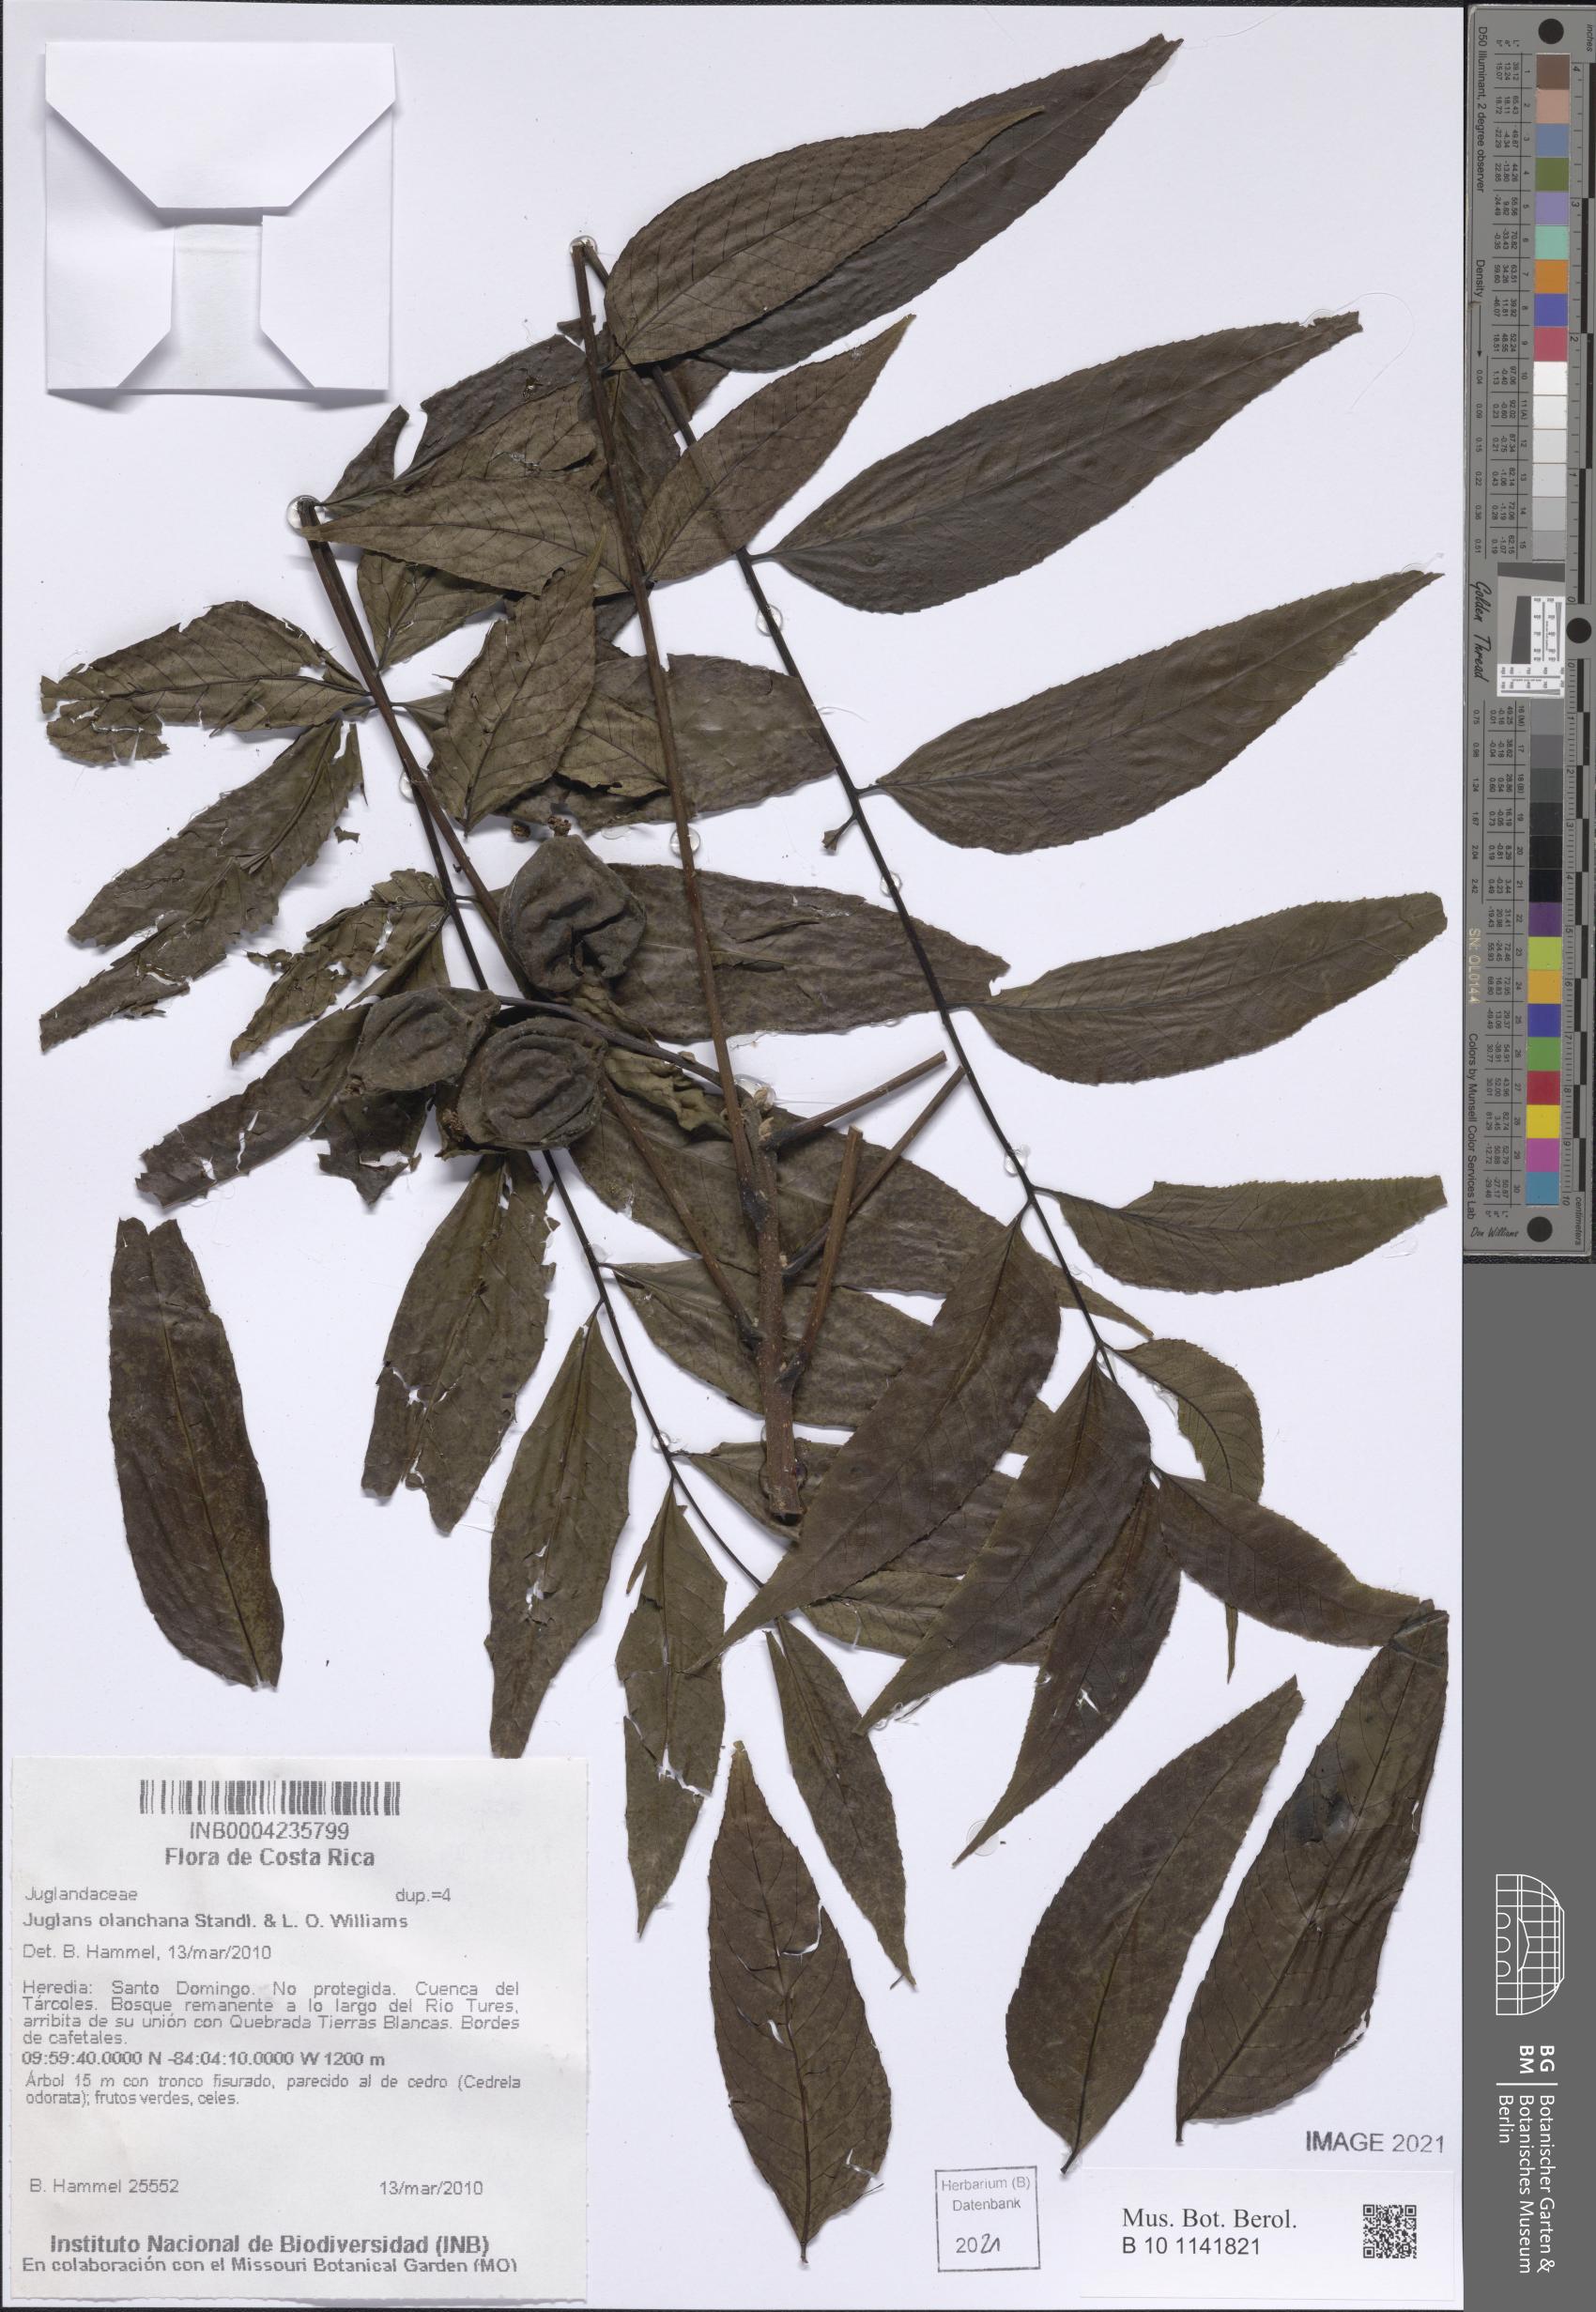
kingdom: Plantae
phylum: Tracheophyta
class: Magnoliopsida
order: Fagales
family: Juglandaceae
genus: Juglans
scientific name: Juglans olanchana
